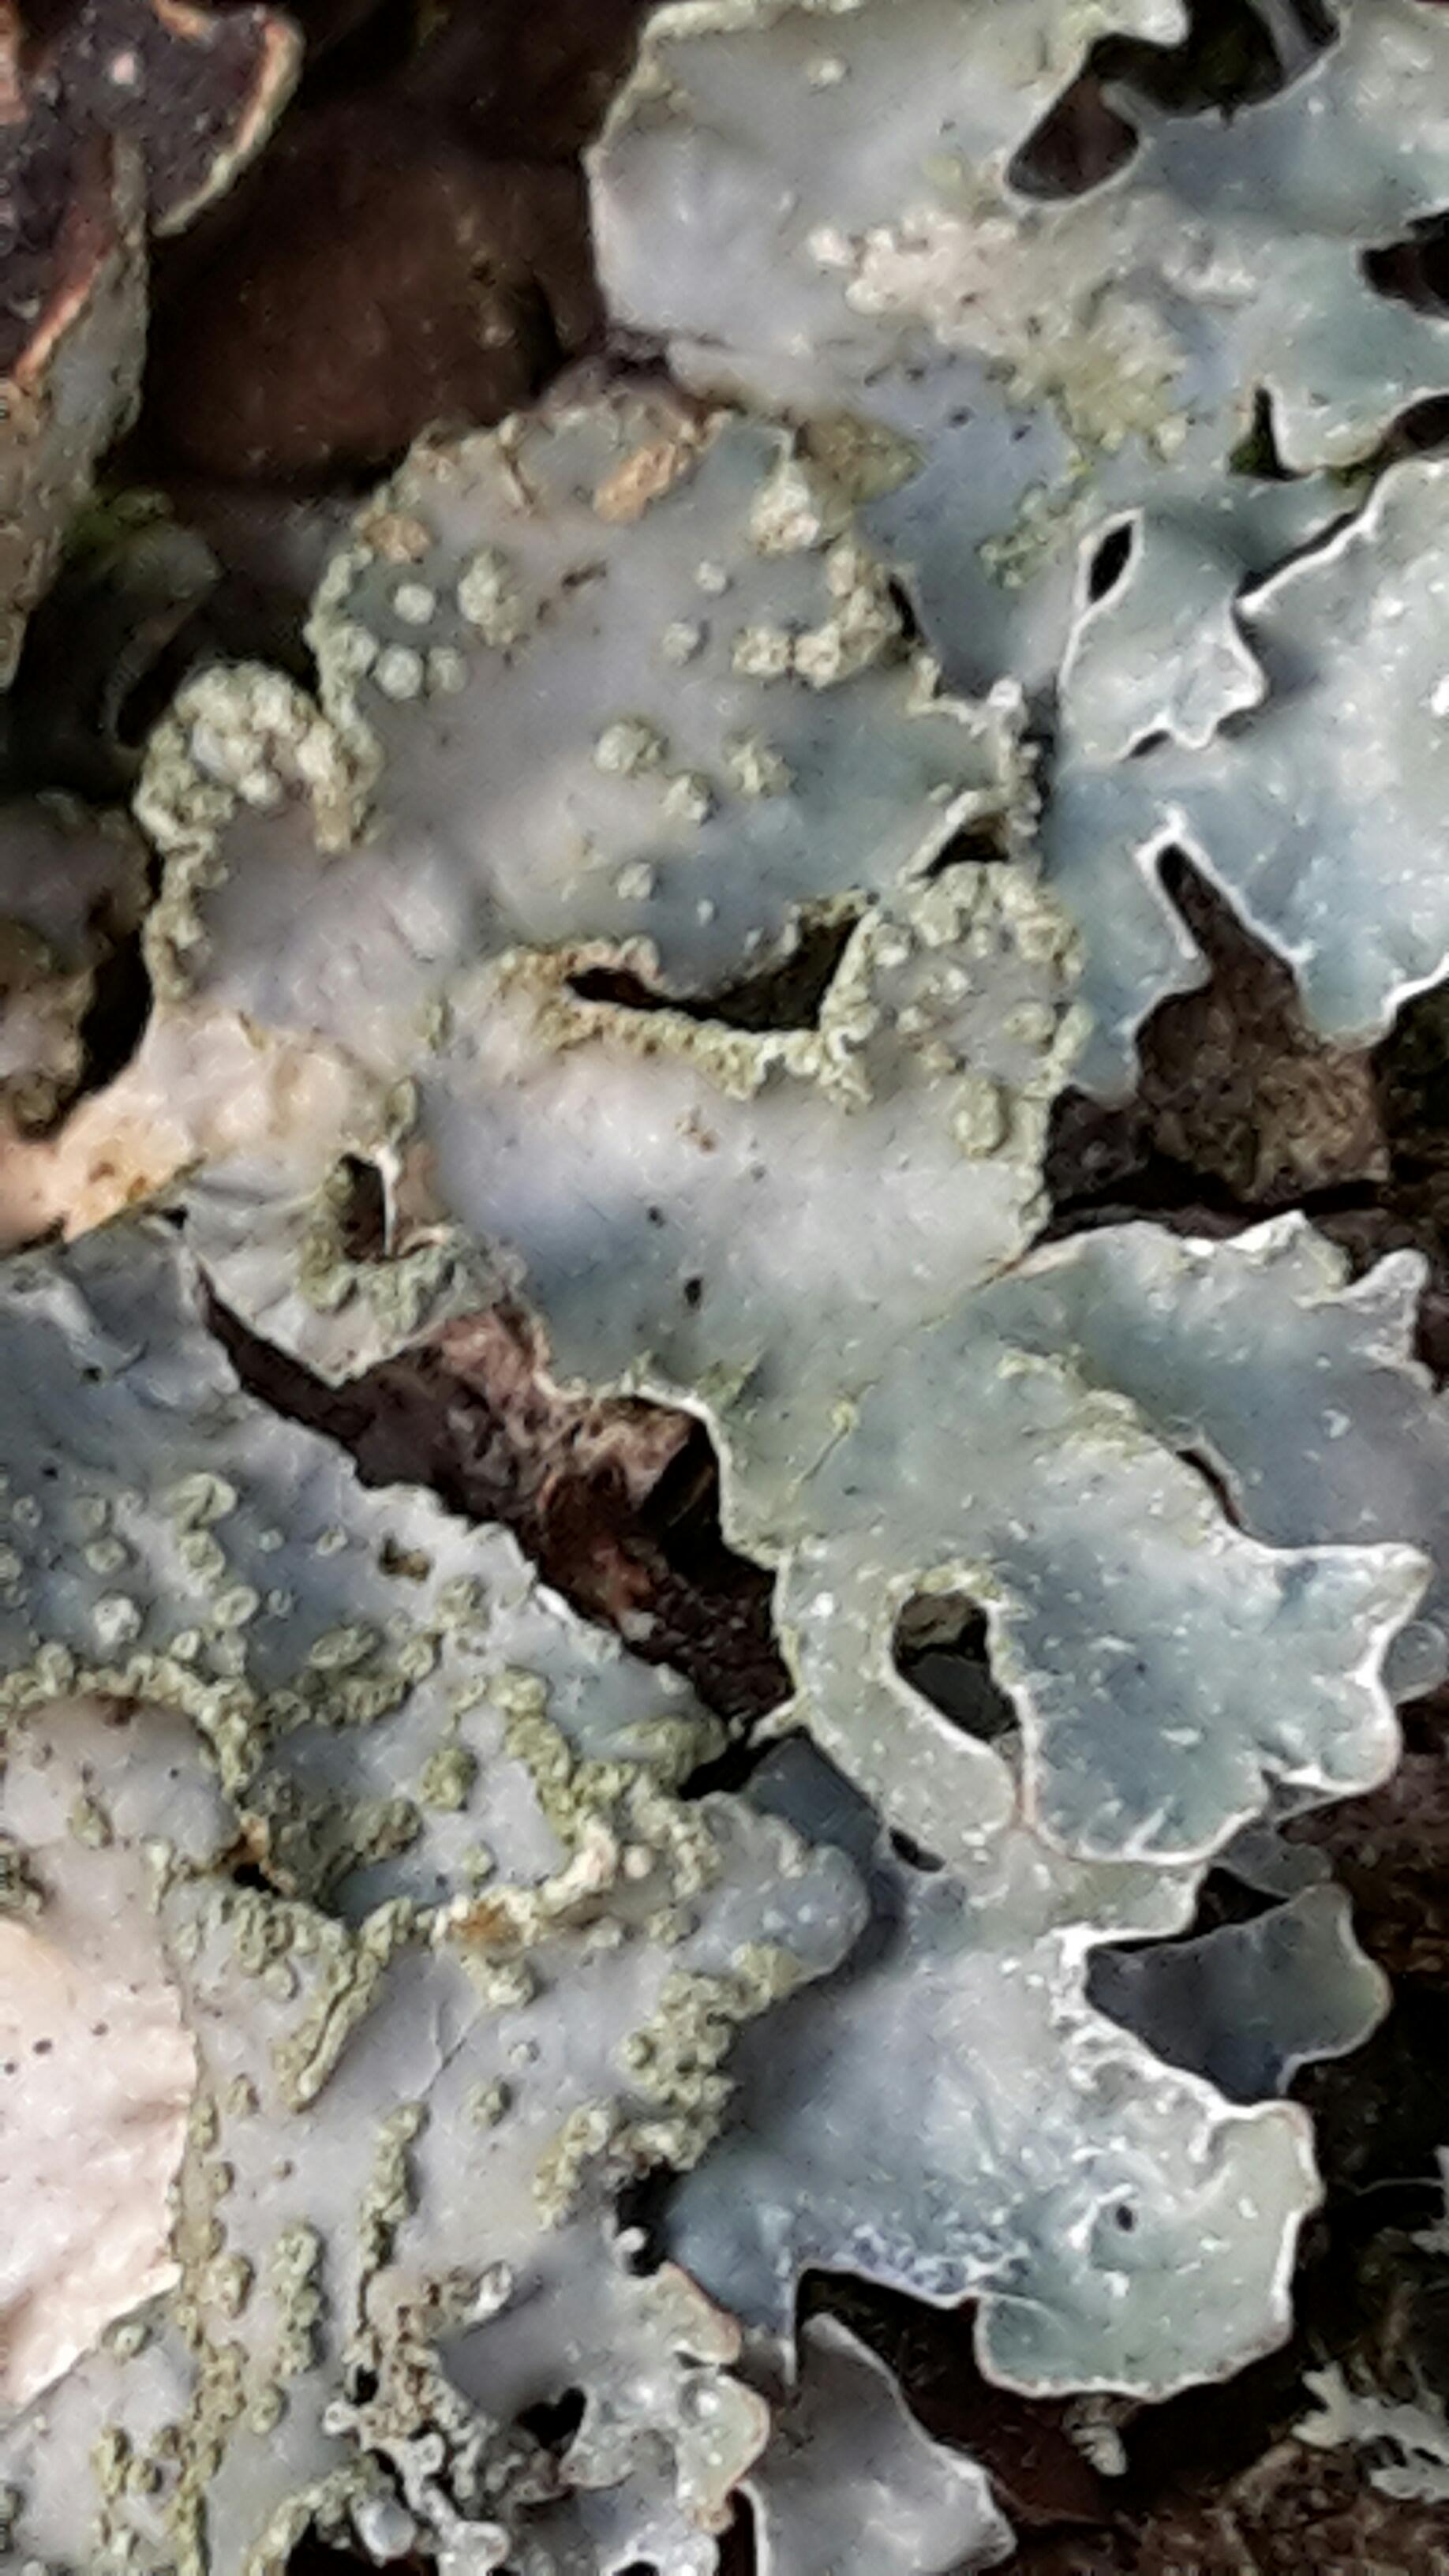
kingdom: Fungi
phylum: Ascomycota
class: Lecanoromycetes
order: Lecanorales
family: Parmeliaceae
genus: Parmelia
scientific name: Parmelia sulcata
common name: rynket skållav
